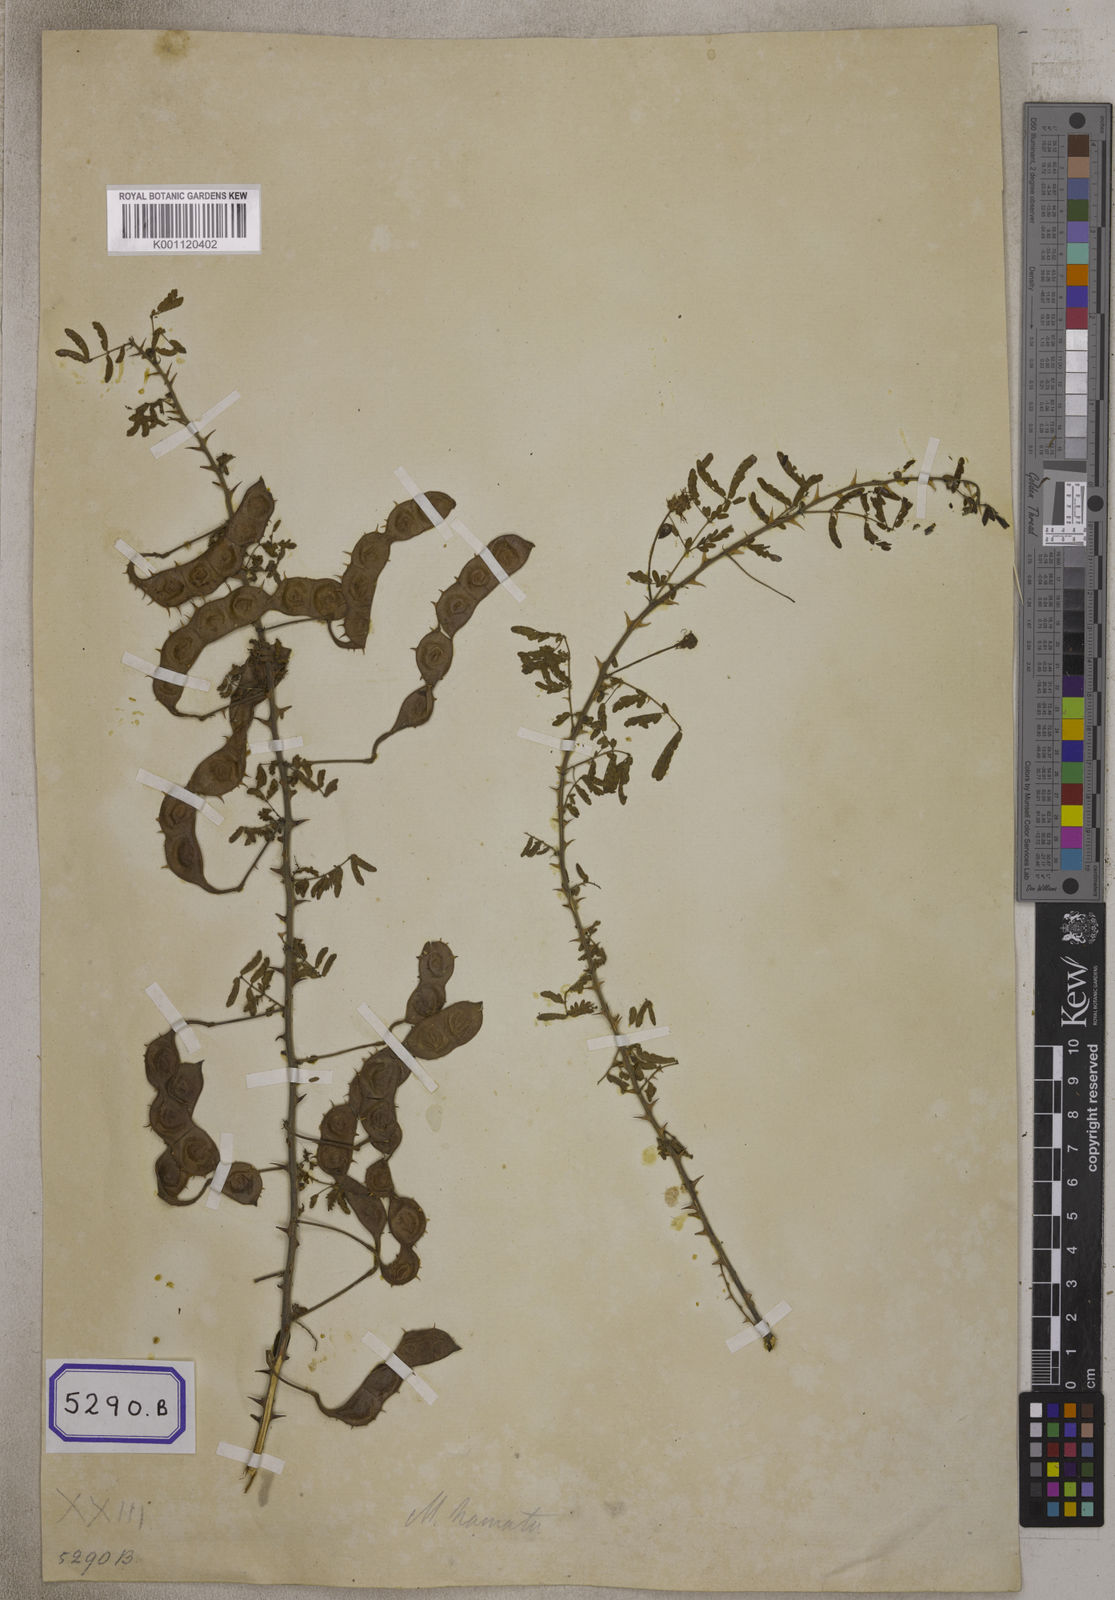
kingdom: Plantae
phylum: Tracheophyta
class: Magnoliopsida
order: Fabales
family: Fabaceae
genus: Mimosa
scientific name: Mimosa hamata
